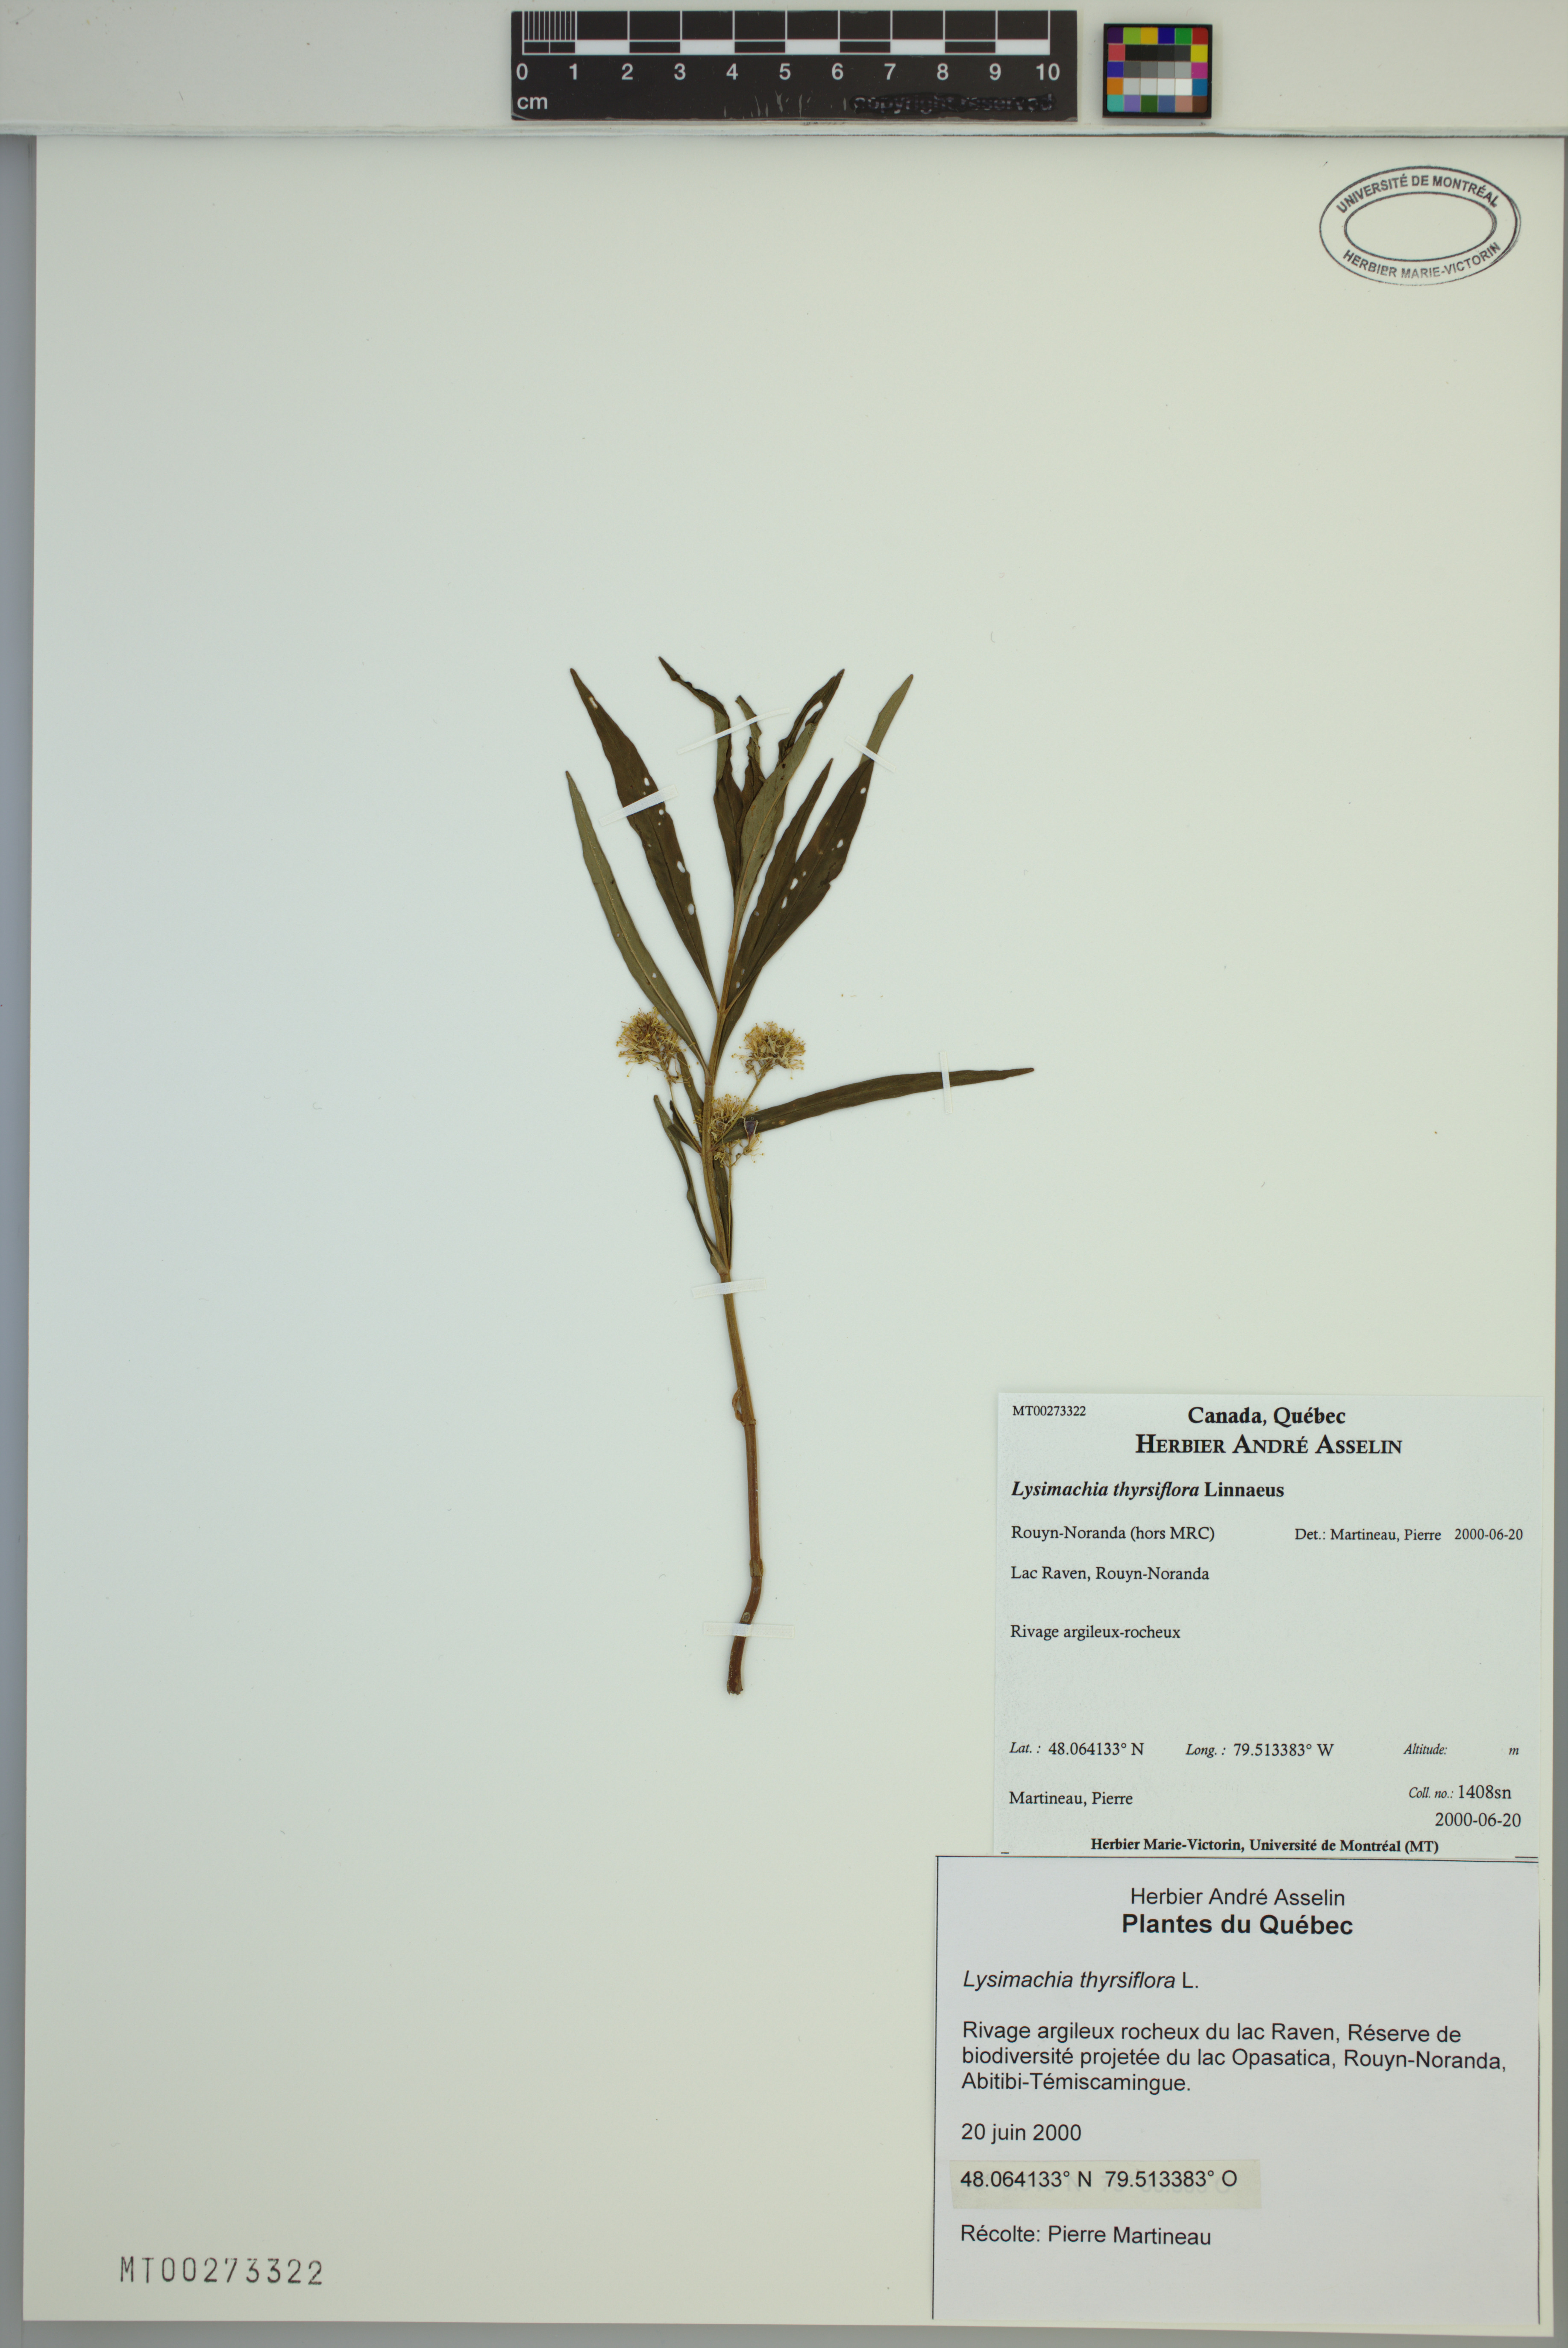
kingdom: Plantae
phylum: Tracheophyta
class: Magnoliopsida
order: Ericales
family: Primulaceae
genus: Lysimachia
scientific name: Lysimachia thyrsiflora
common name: Tufted loosestrife
